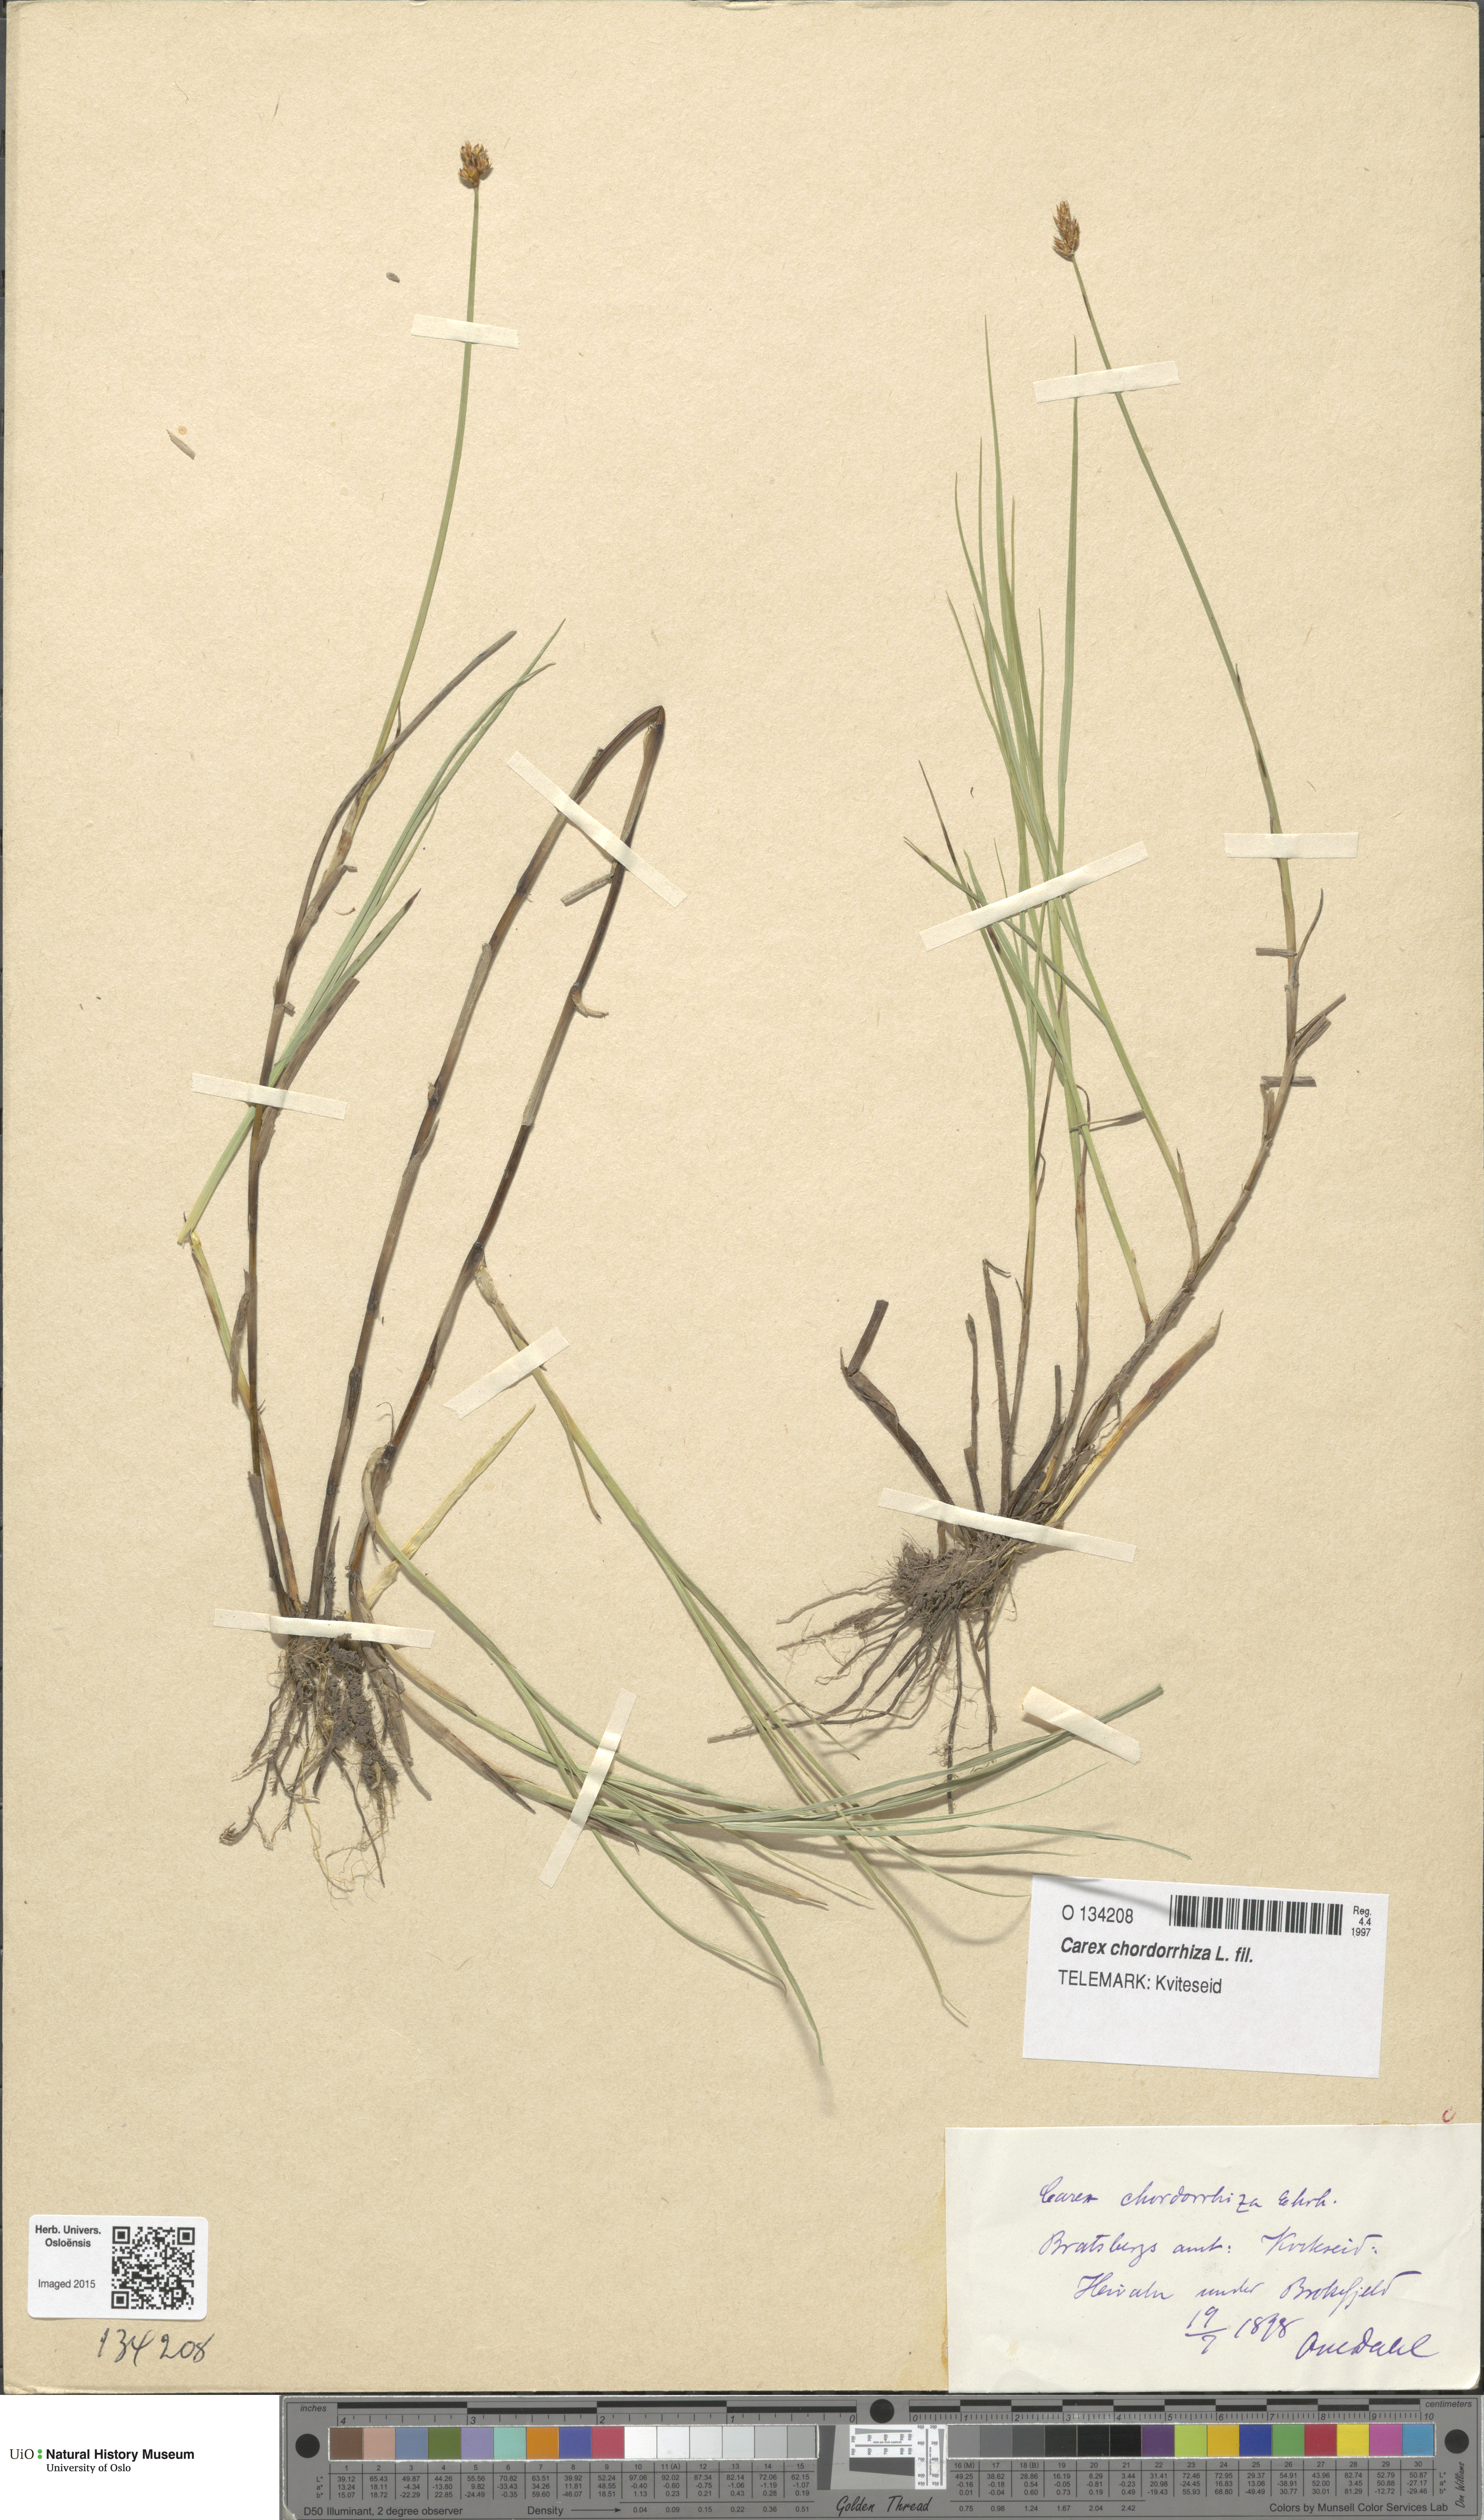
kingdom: Plantae
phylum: Tracheophyta
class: Liliopsida
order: Poales
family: Cyperaceae
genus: Carex
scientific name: Carex chordorrhiza
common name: String sedge
